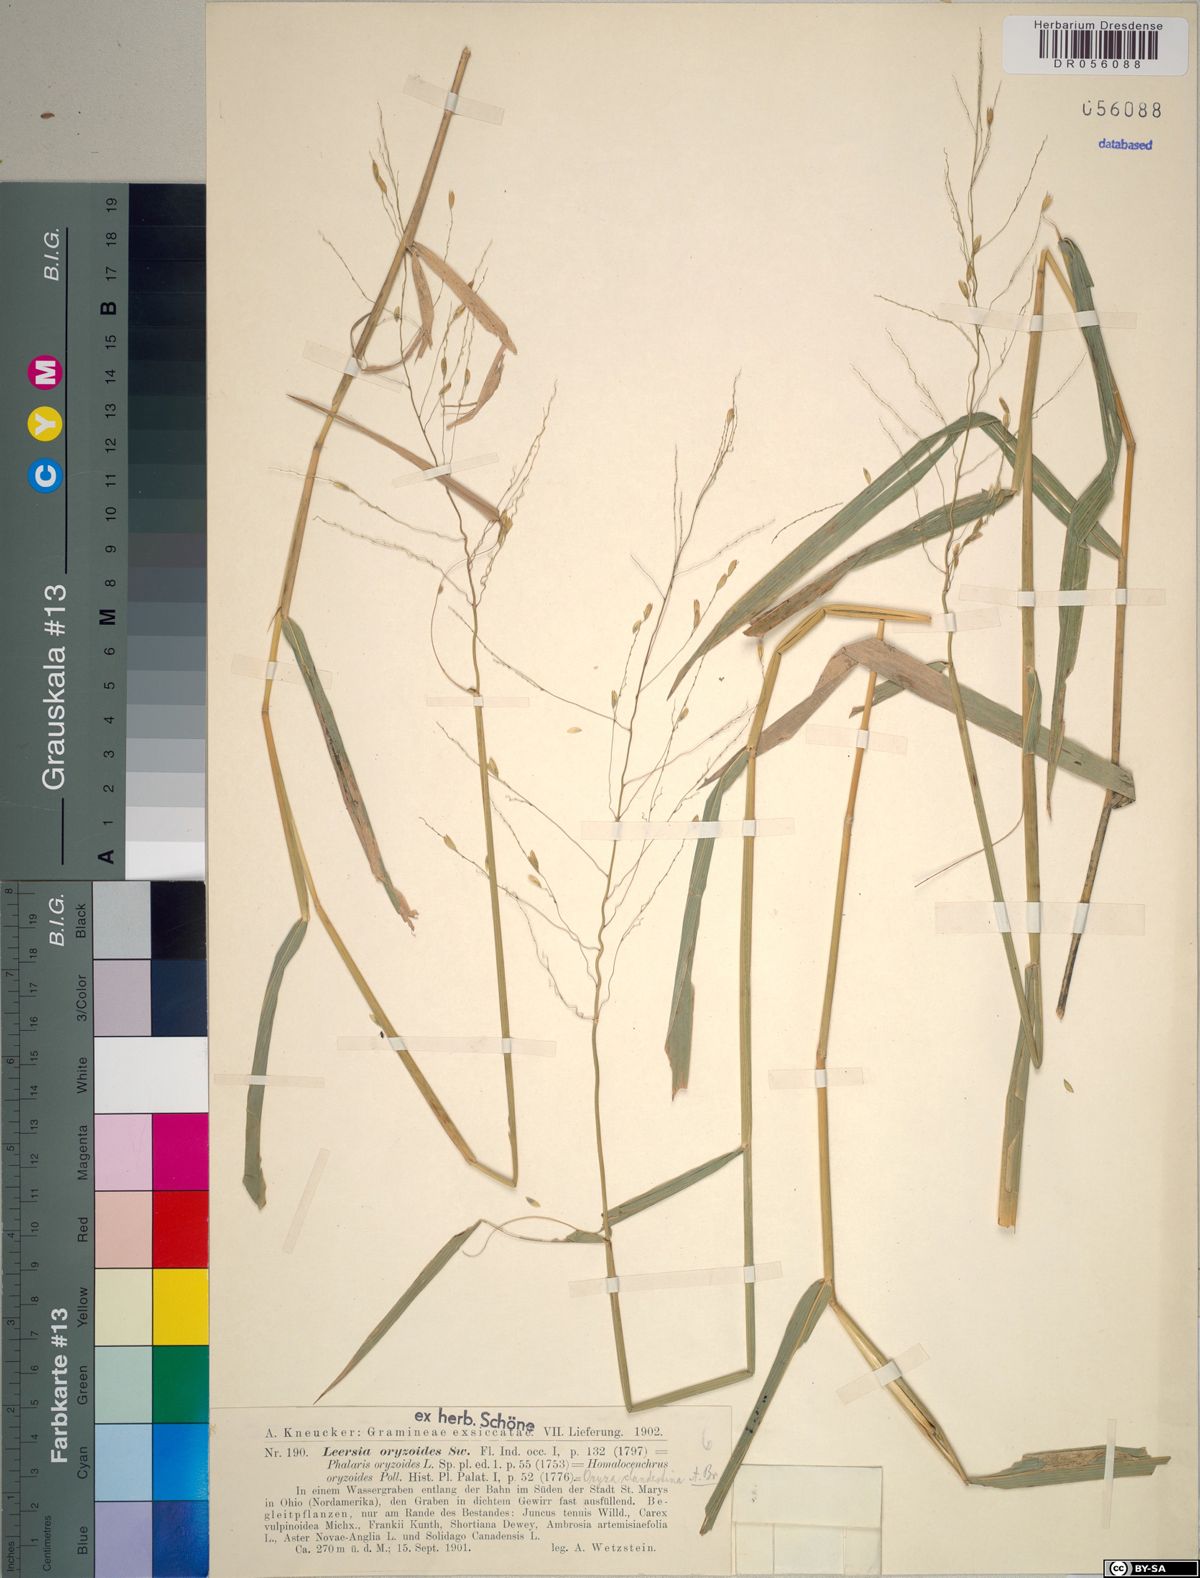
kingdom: Plantae
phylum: Tracheophyta
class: Liliopsida
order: Poales
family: Poaceae
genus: Leersia
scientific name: Leersia oryzoides
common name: Cut-grass
